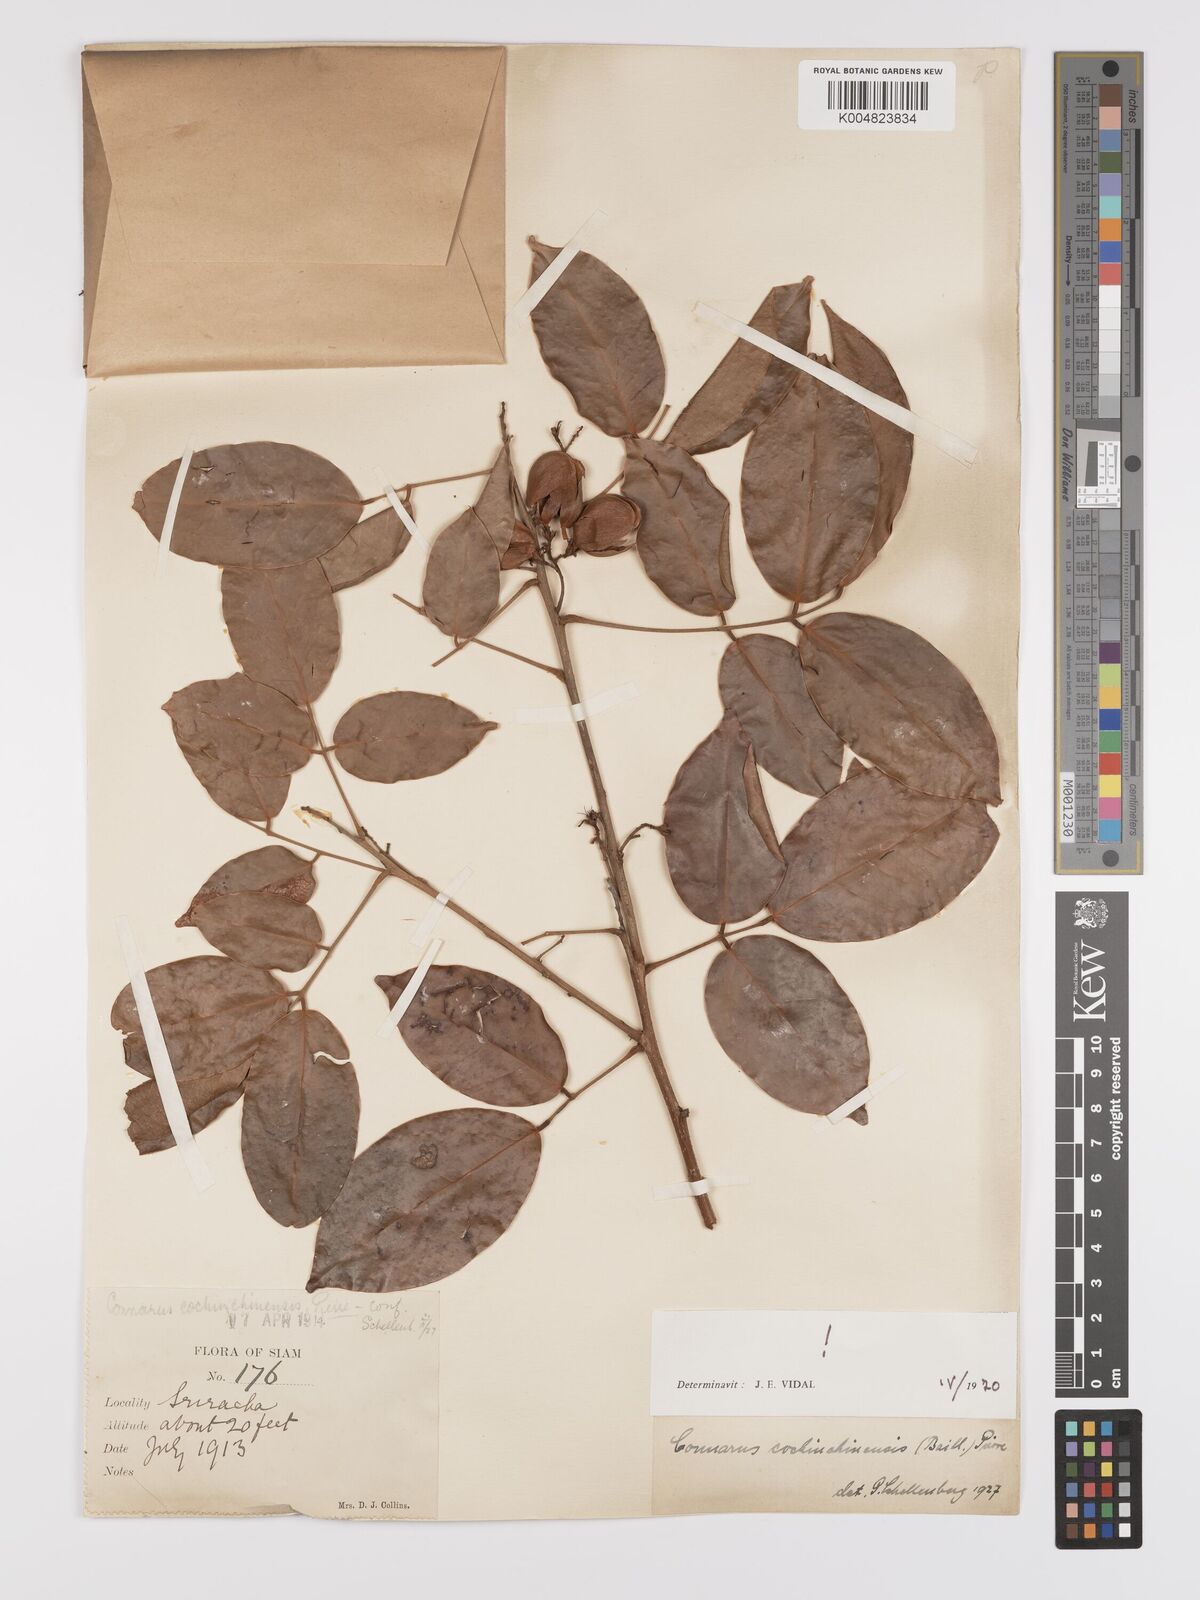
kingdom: Plantae
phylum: Tracheophyta
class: Magnoliopsida
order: Oxalidales
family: Connaraceae
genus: Connarus
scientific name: Connarus cochinchinensis
